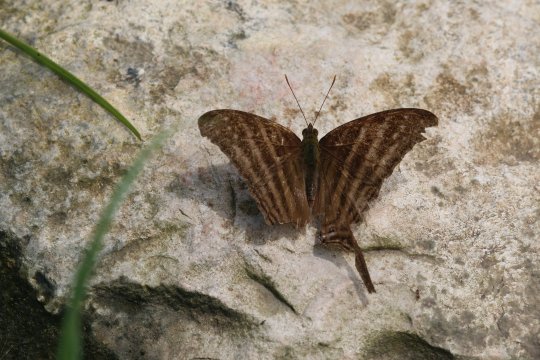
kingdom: Animalia
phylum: Arthropoda
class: Insecta
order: Lepidoptera
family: Nymphalidae
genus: Marpesia
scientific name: Marpesia chiron
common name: Many-banded Daggerwing
